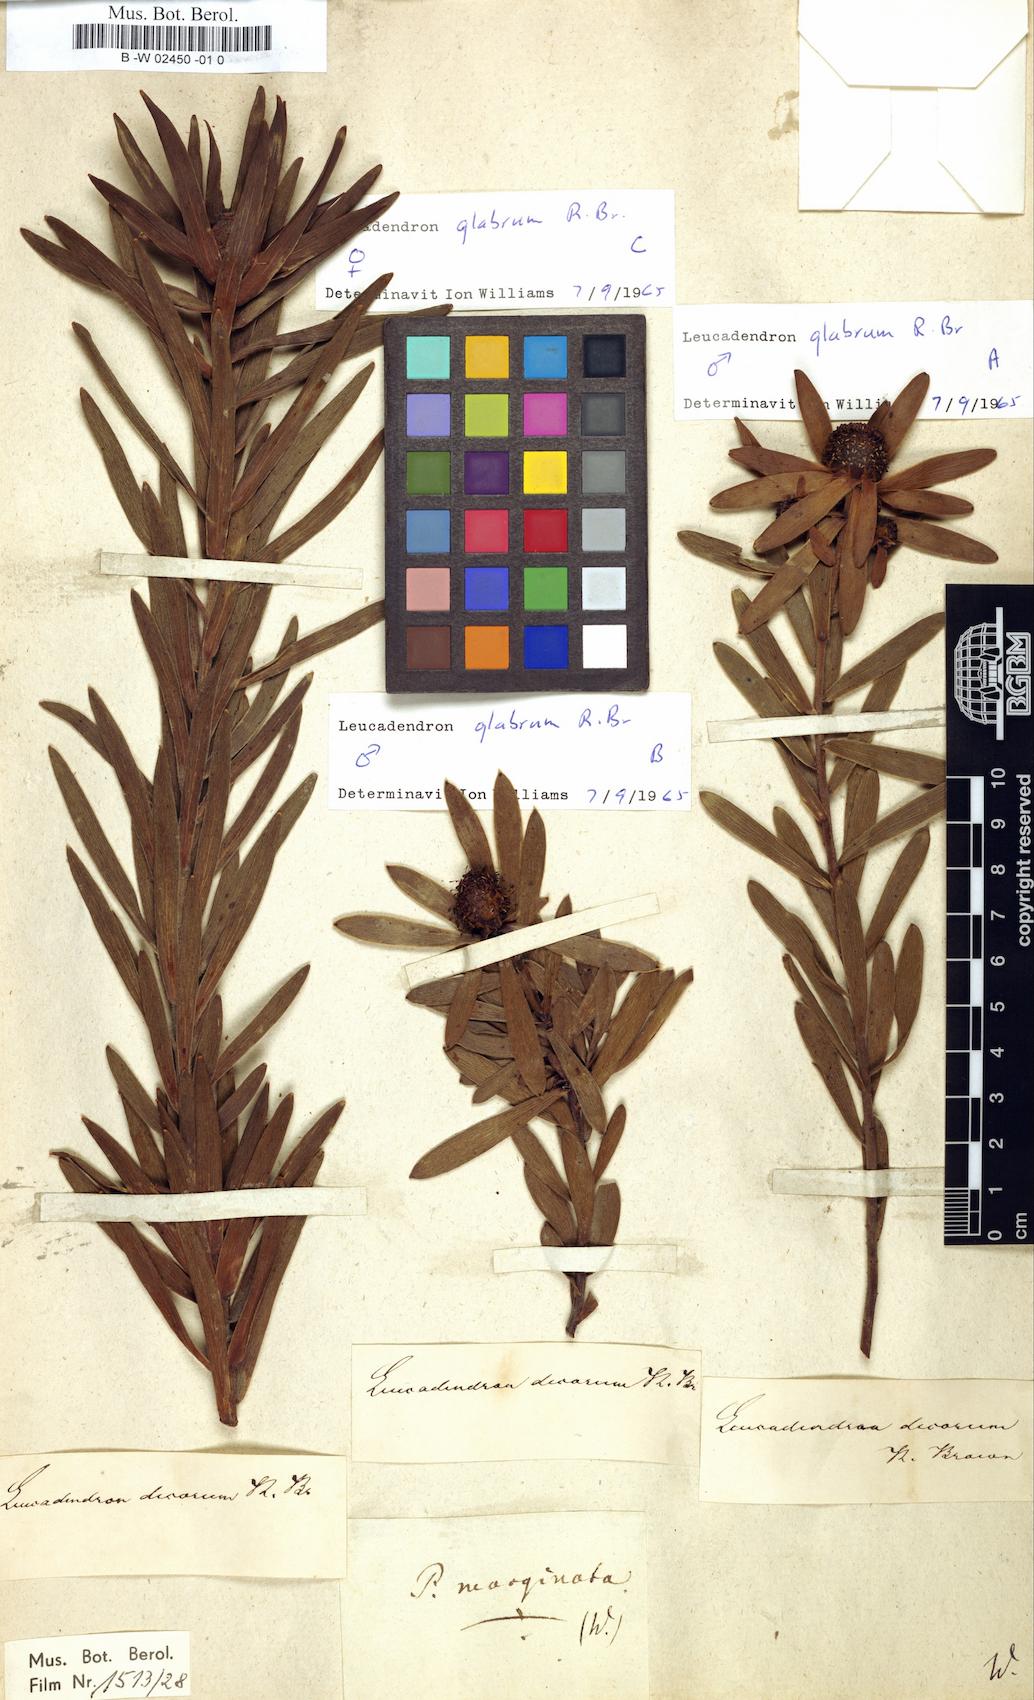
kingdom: Plantae
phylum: Tracheophyta
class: Magnoliopsida
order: Proteales
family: Proteaceae
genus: Protea
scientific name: Protea laurifolia
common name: Grey-leaf sugarbsh
